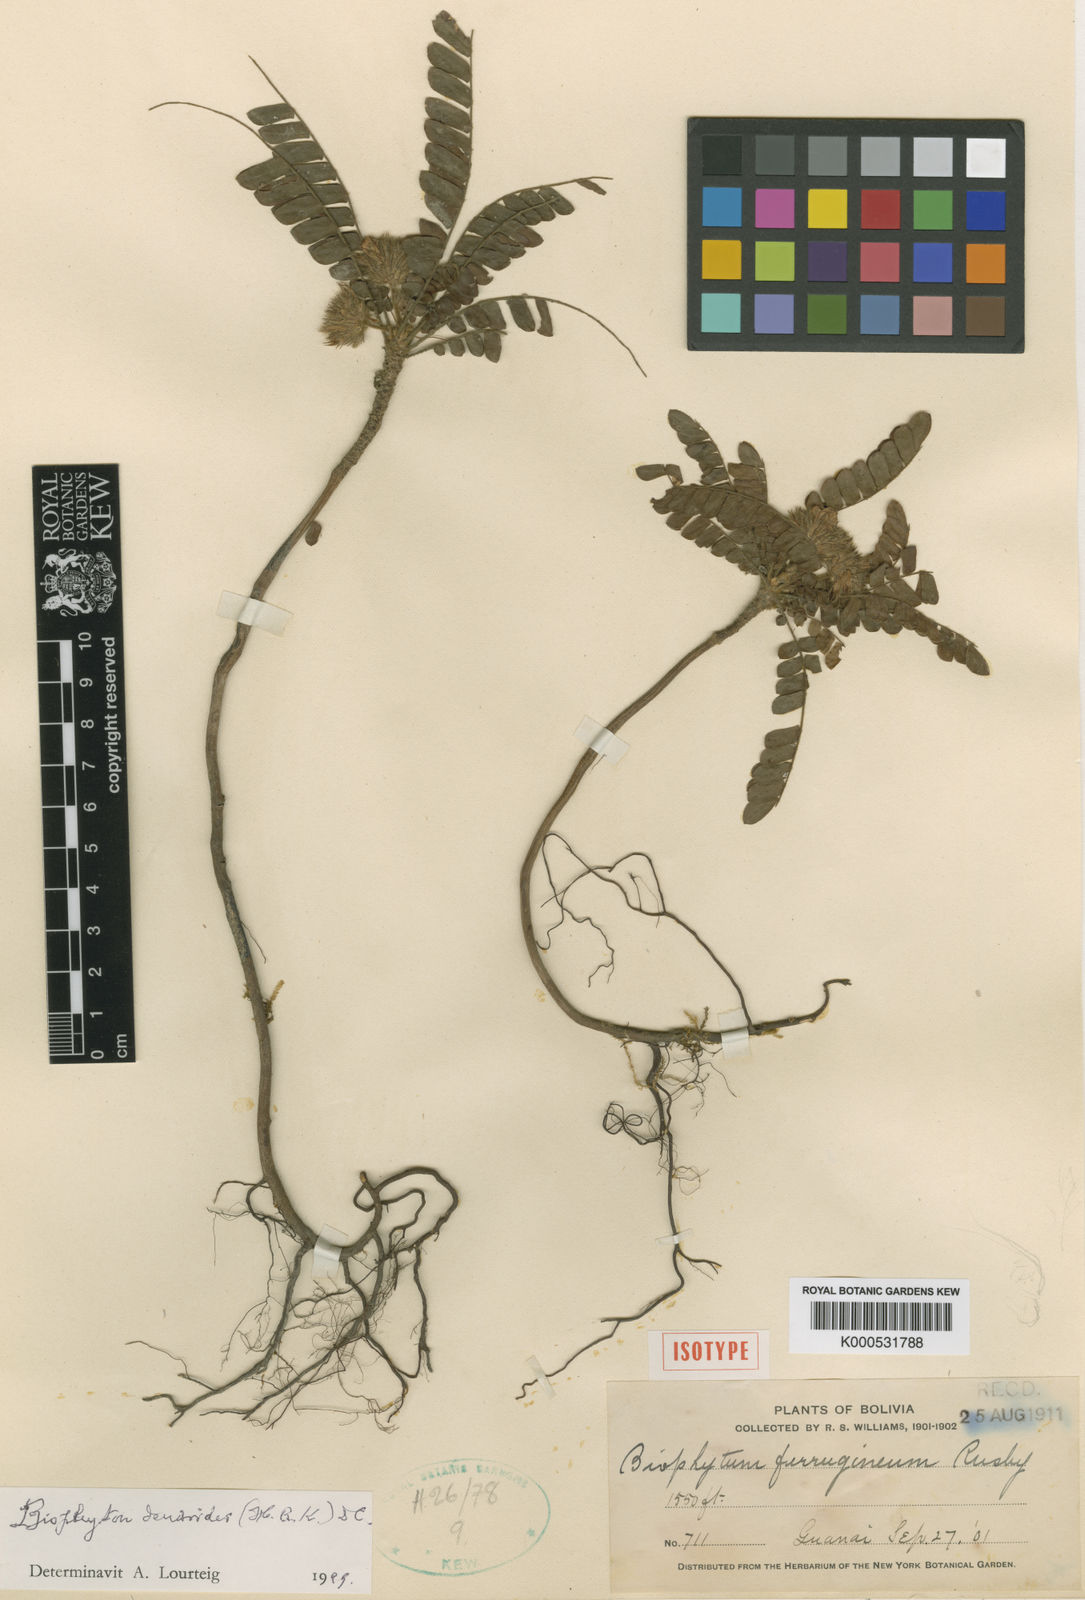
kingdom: Plantae
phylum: Tracheophyta
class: Magnoliopsida
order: Oxalidales
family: Oxalidaceae
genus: Biophytum
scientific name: Biophytum dendroides
